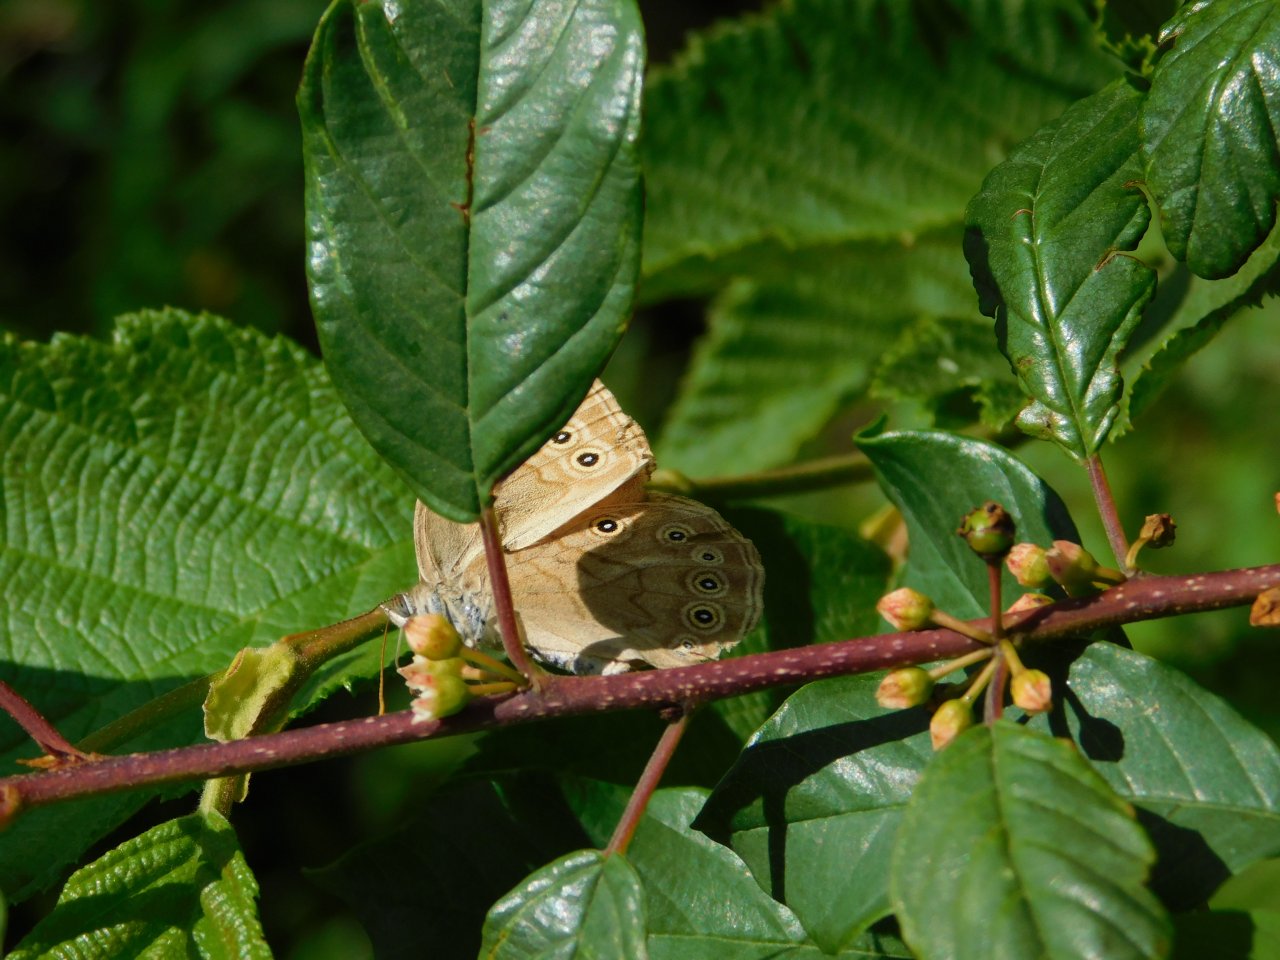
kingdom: Animalia
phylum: Arthropoda
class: Insecta
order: Lepidoptera
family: Nymphalidae
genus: Lethe
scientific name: Lethe eurydice
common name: Eyed Brown
